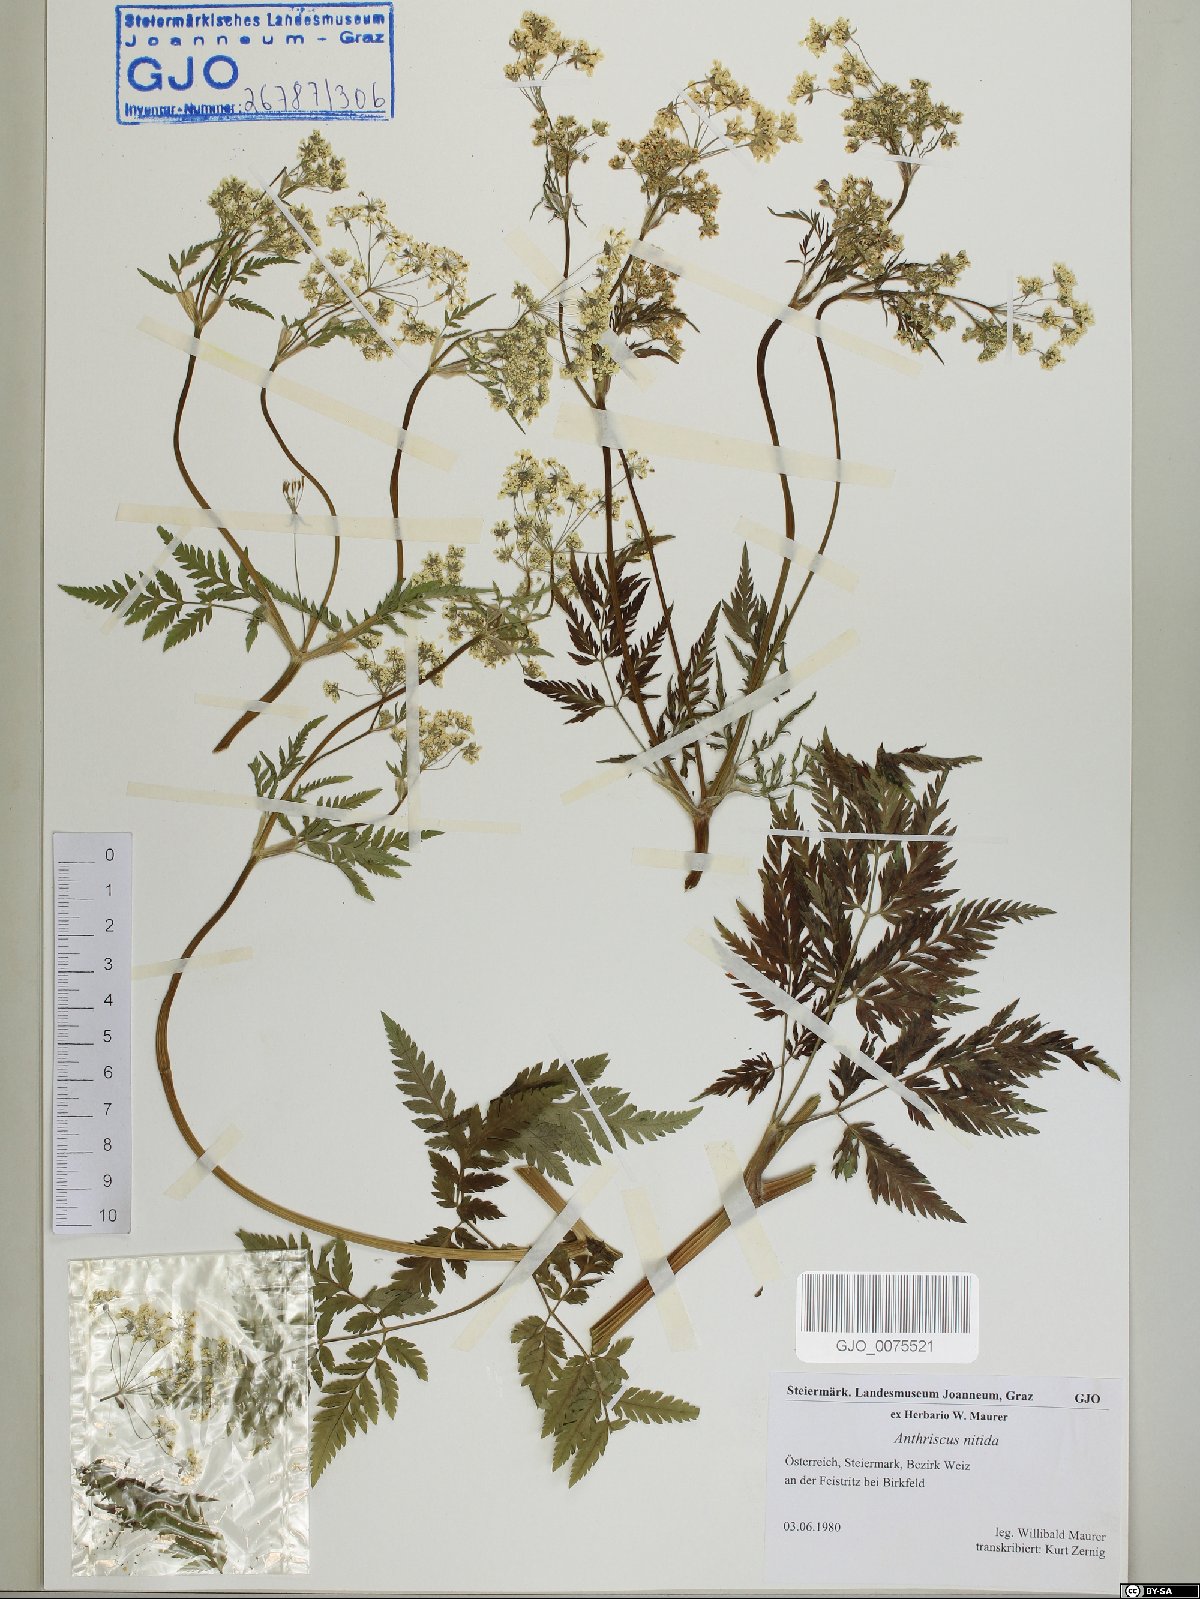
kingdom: Plantae
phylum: Tracheophyta
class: Magnoliopsida
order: Apiales
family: Apiaceae
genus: Anthriscus
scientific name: Anthriscus nitida
